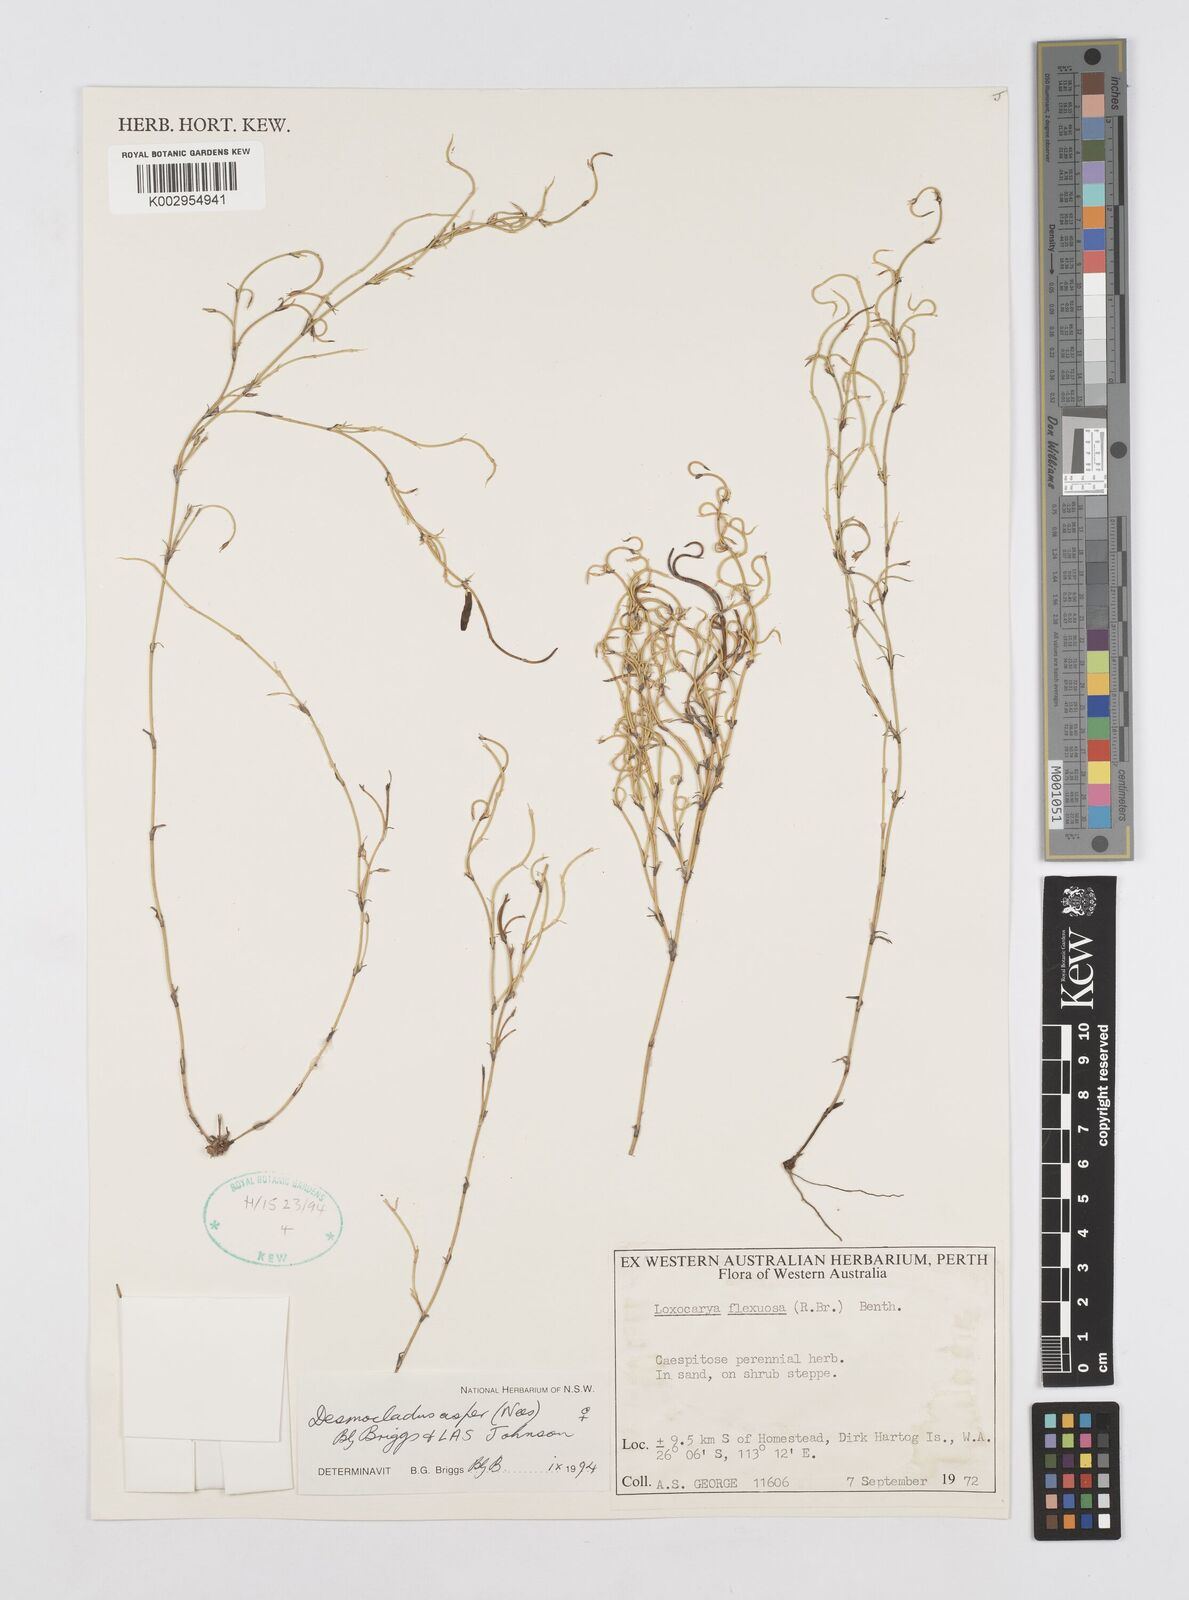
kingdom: Plantae
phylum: Tracheophyta
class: Liliopsida
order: Poales
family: Restionaceae
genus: Desmocladus
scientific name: Desmocladus asper
